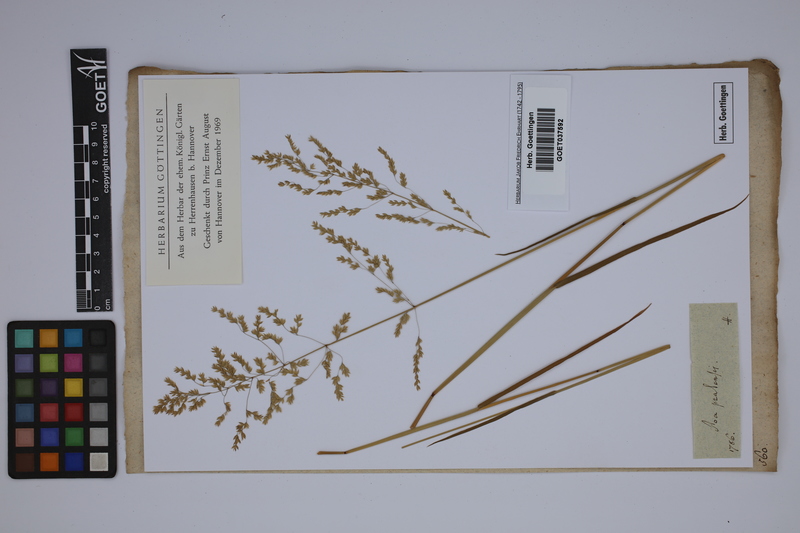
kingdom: Plantae
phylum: Tracheophyta
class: Liliopsida
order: Poales
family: Poaceae
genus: Poa
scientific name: Poa pratensis
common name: Kentucky bluegrass
